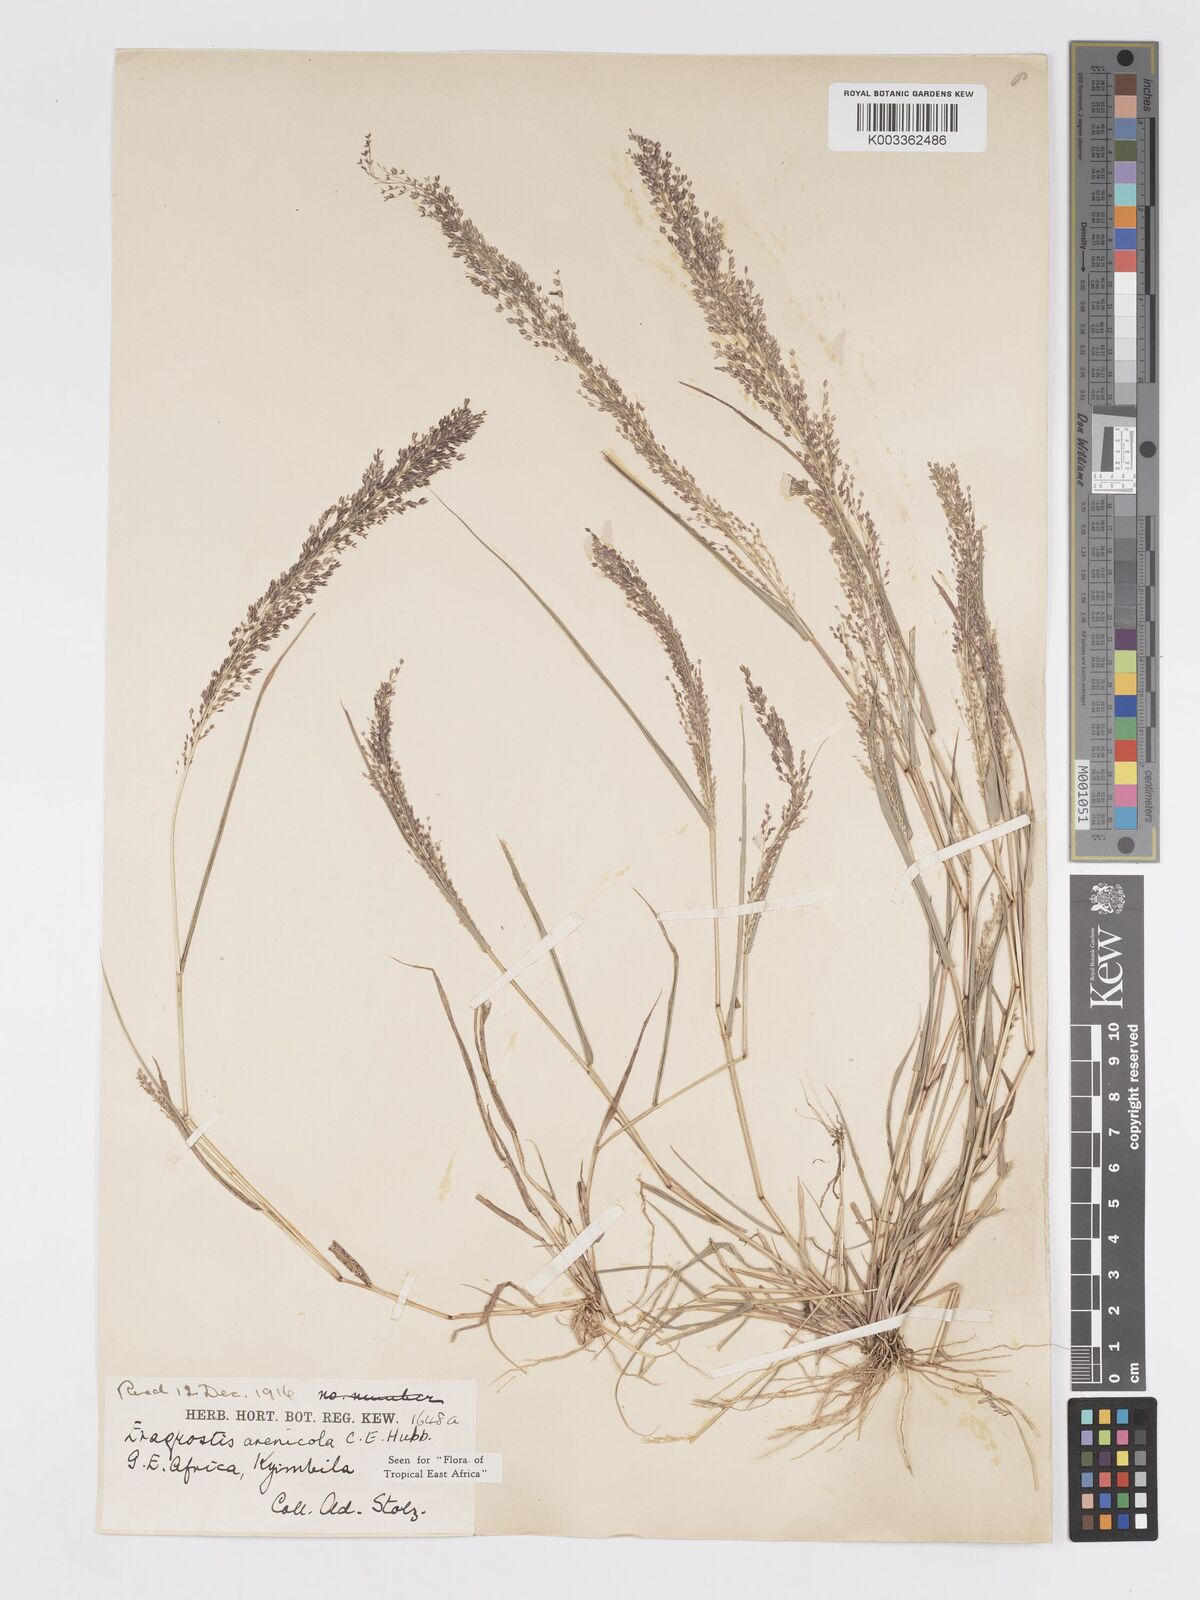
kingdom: Plantae
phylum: Tracheophyta
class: Liliopsida
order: Poales
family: Poaceae
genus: Eragrostis
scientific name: Eragrostis arenicola
